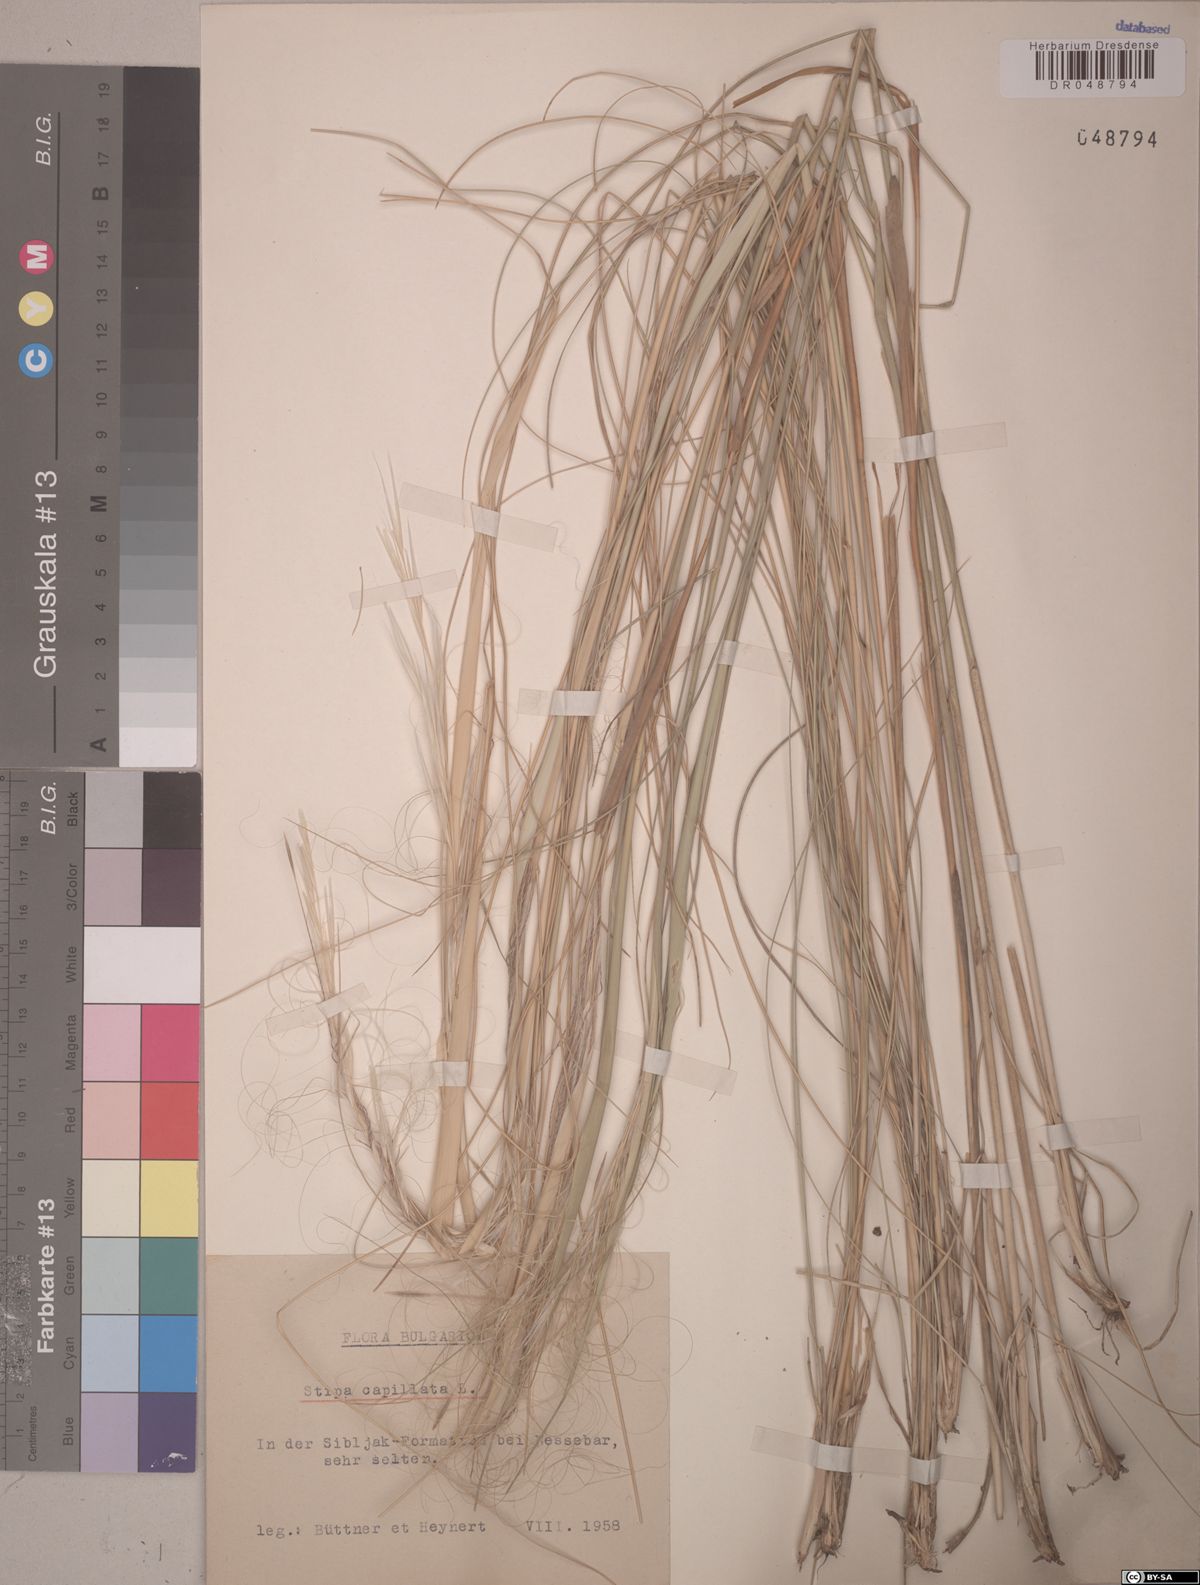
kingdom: Plantae
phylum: Tracheophyta
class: Liliopsida
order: Poales
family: Poaceae
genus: Stipa
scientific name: Stipa capillata
